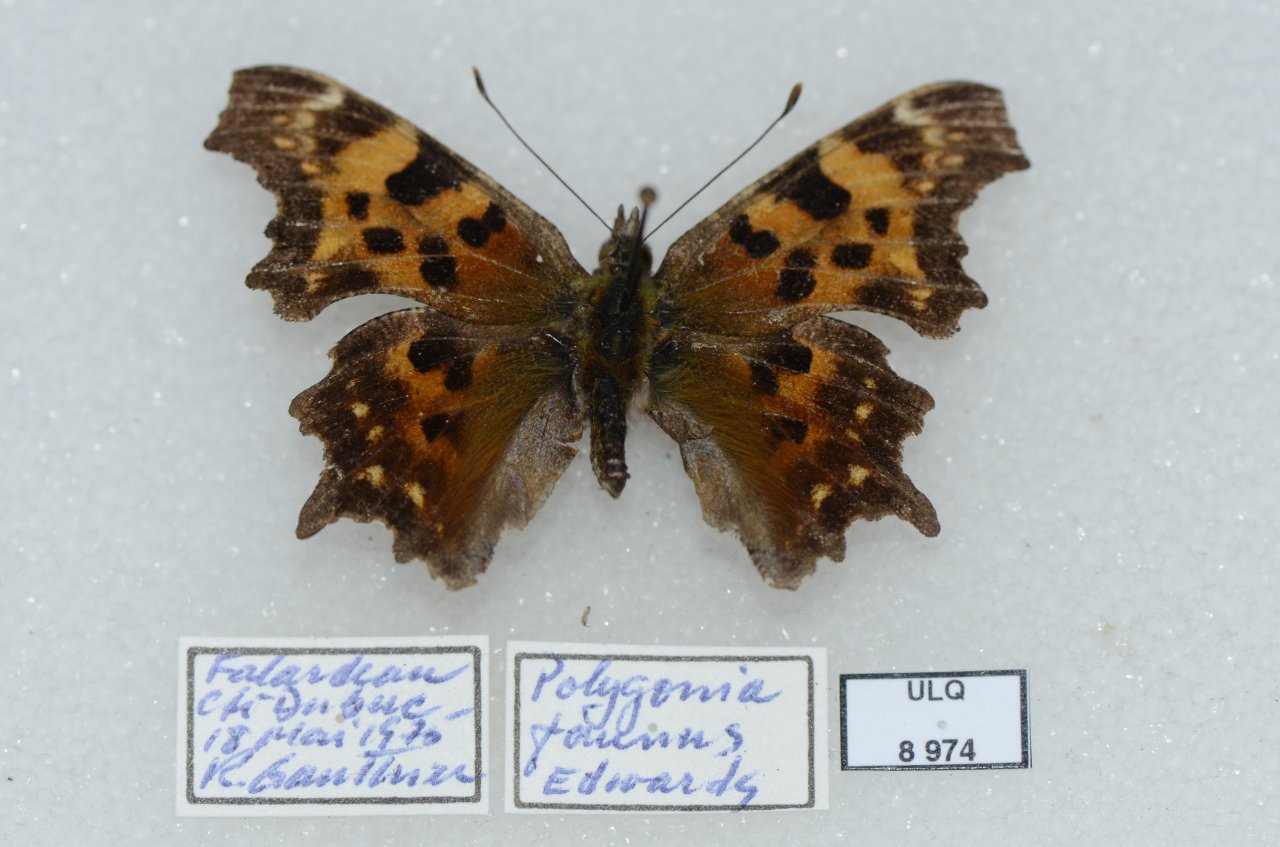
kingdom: Animalia
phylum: Arthropoda
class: Insecta
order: Lepidoptera
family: Nymphalidae
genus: Polygonia
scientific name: Polygonia faunus
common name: Green Comma
